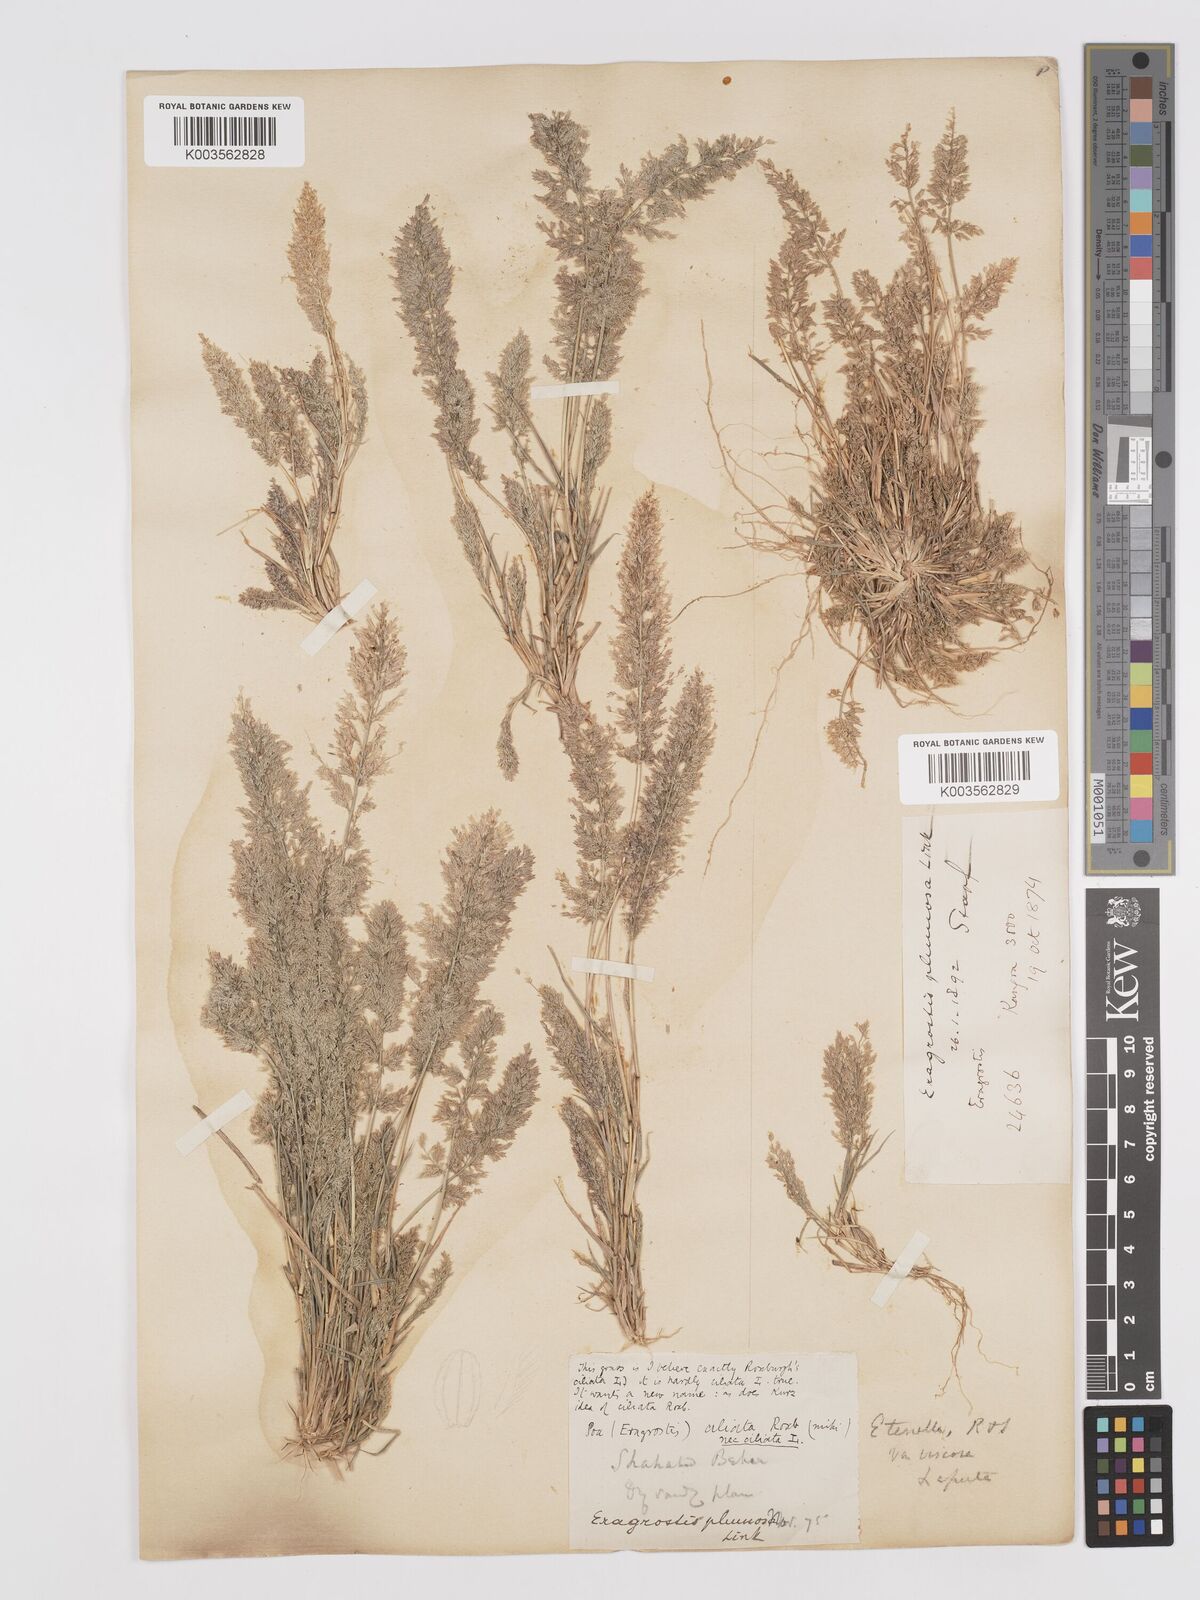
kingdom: Plantae
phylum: Tracheophyta
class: Liliopsida
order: Poales
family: Poaceae
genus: Eragrostis
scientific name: Eragrostis viscosa
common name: Sticky love grass
